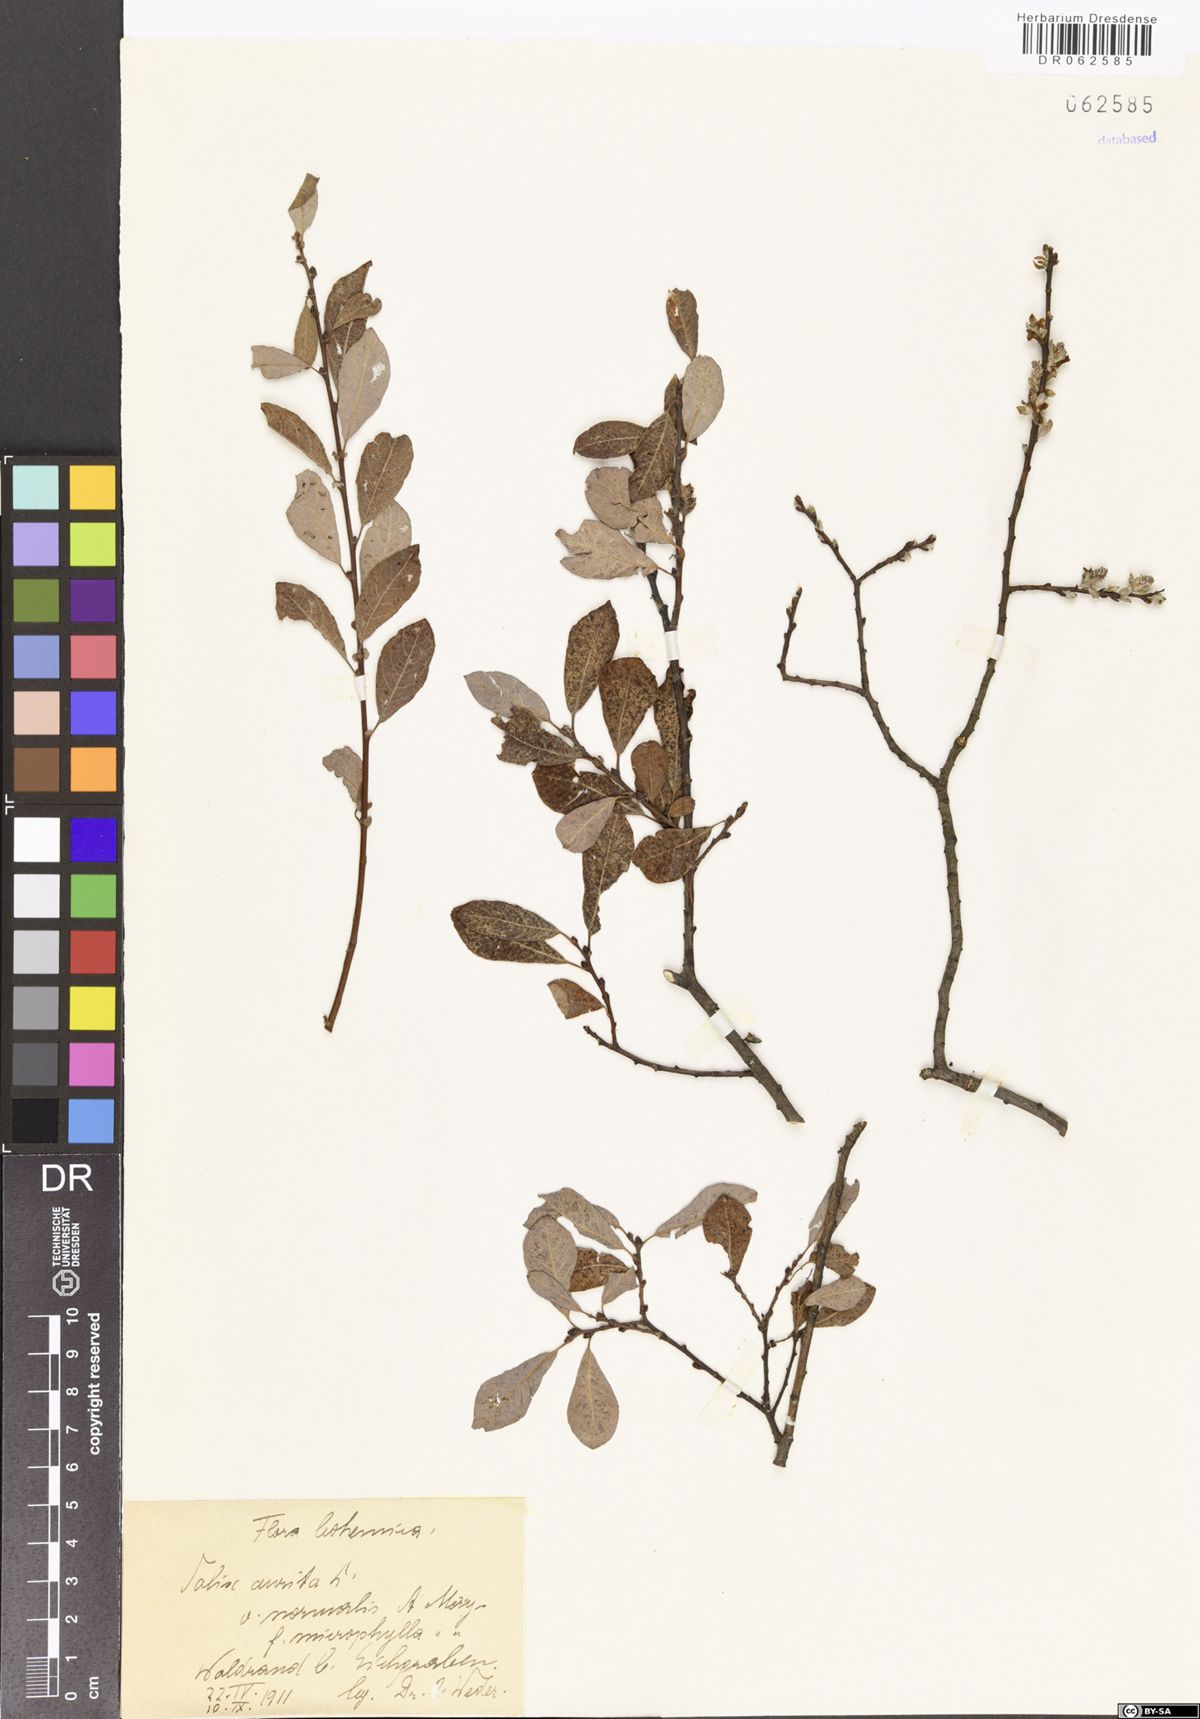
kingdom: Plantae
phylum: Tracheophyta
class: Magnoliopsida
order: Malpighiales
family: Salicaceae
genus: Salix
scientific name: Salix aurita
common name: Eared willow
